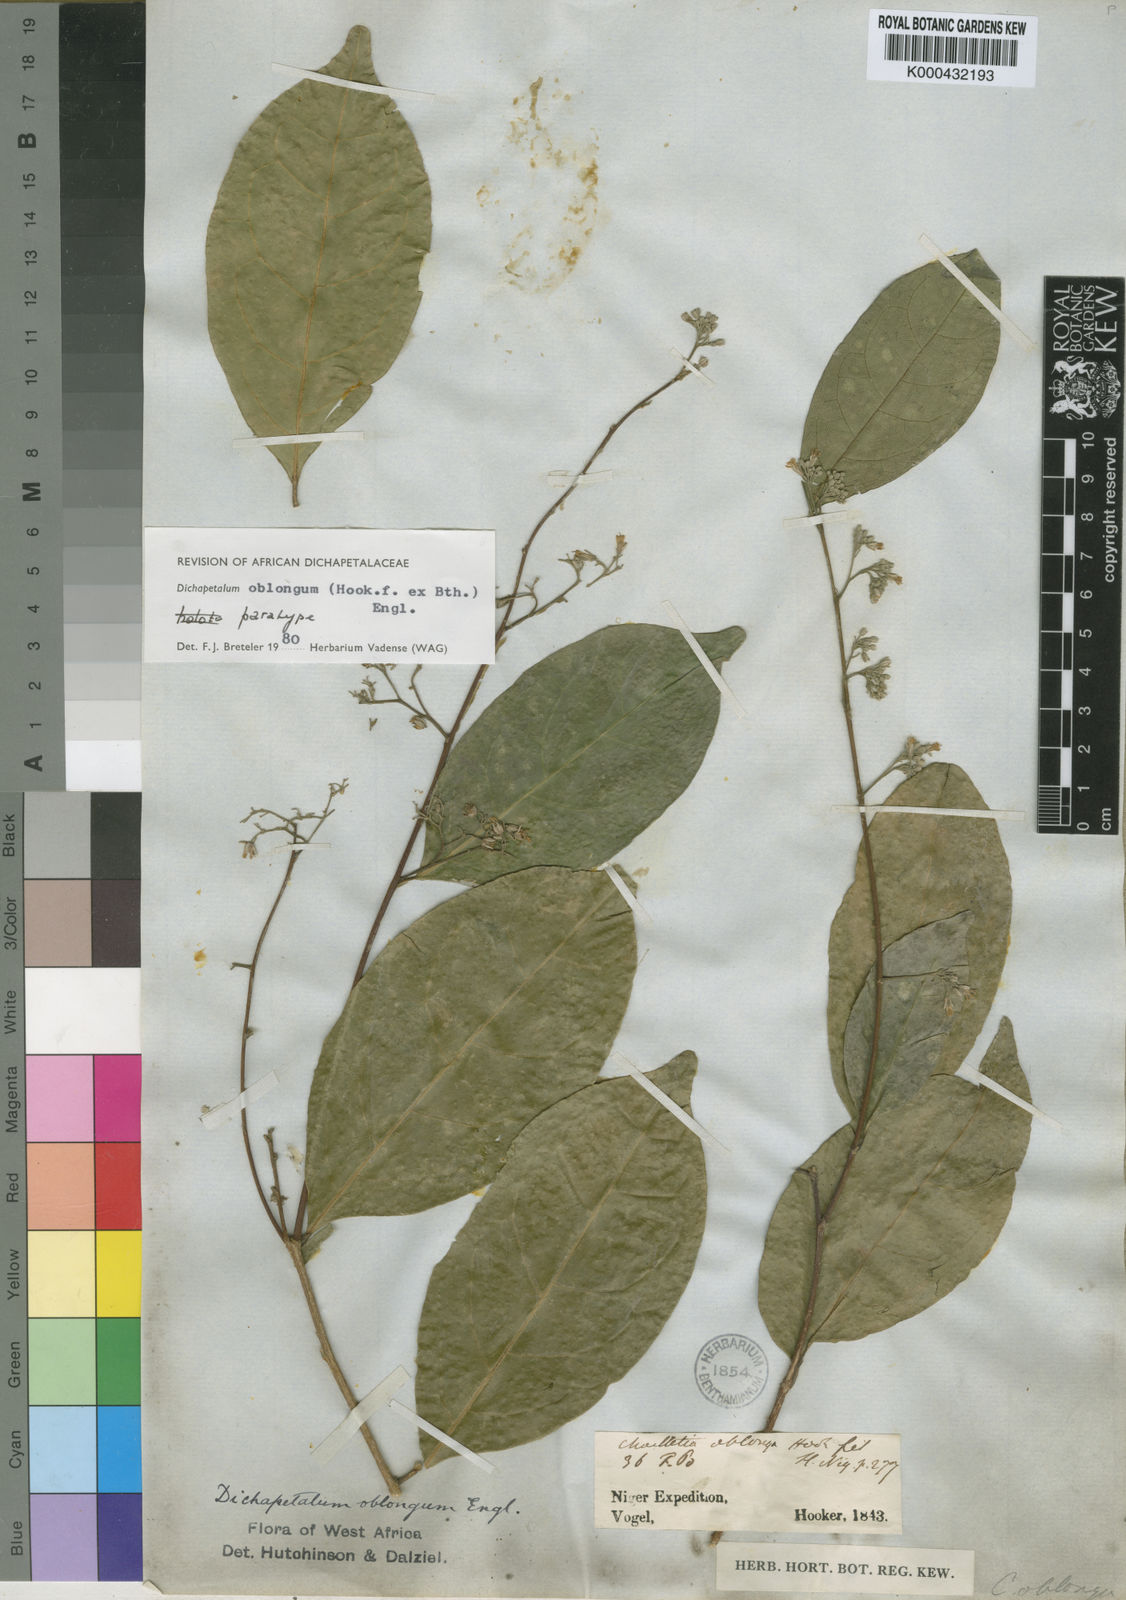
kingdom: Plantae
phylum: Tracheophyta
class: Magnoliopsida
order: Malpighiales
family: Dichapetalaceae
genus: Dichapetalum
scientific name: Dichapetalum oblongum
